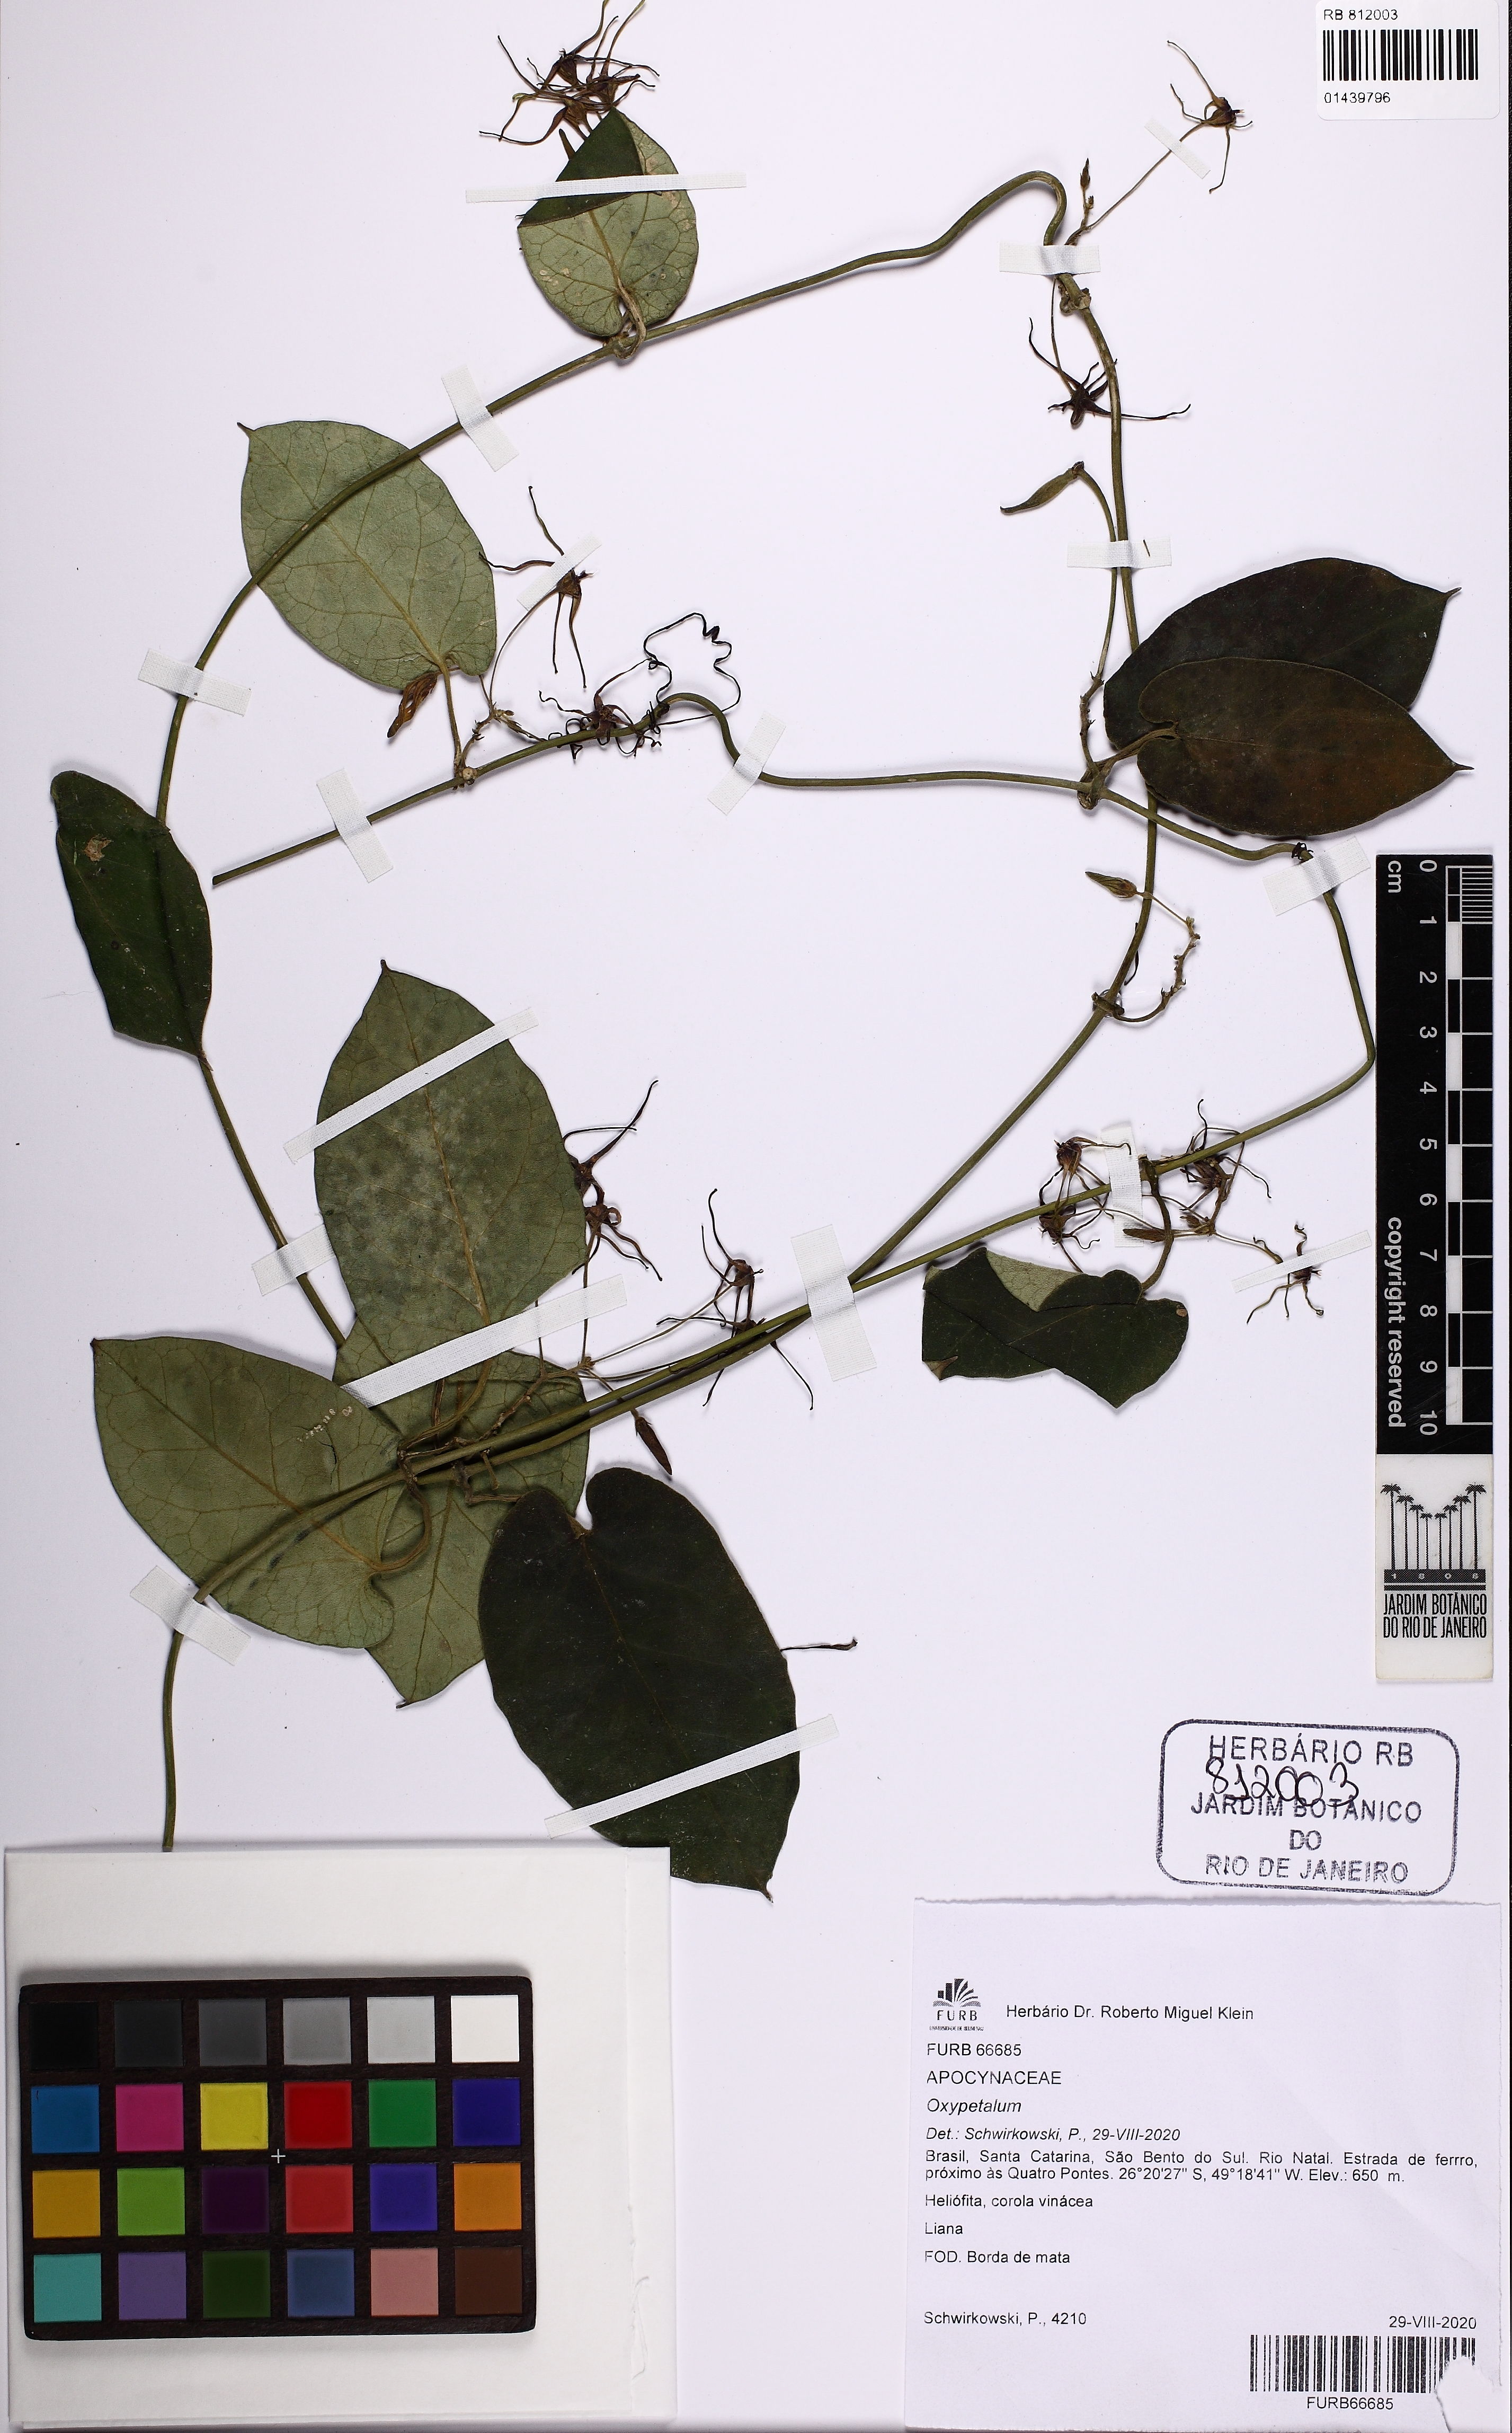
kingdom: Plantae
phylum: Tracheophyta
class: Magnoliopsida
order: Gentianales
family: Apocynaceae
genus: Oxypetalum
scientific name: Oxypetalum
